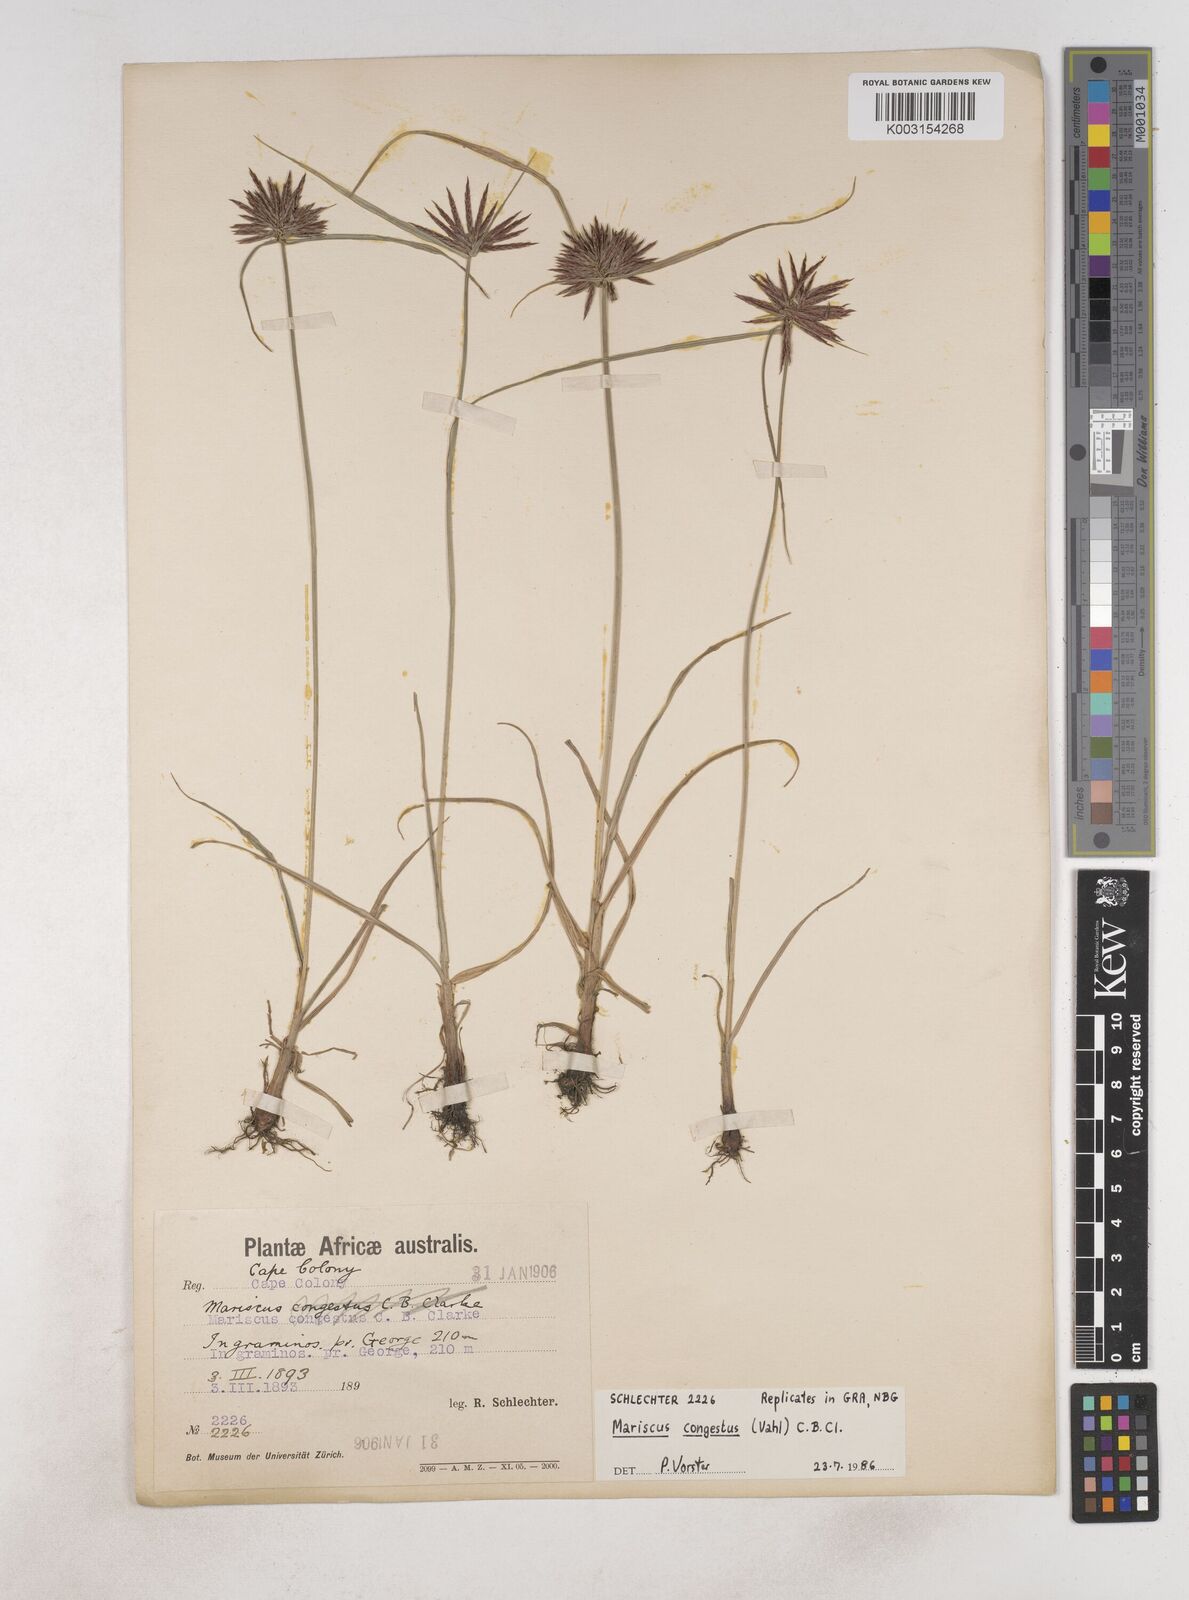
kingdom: Plantae
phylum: Tracheophyta
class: Liliopsida
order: Poales
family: Cyperaceae
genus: Cyperus
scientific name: Cyperus congestus
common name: Dense flat sedge
